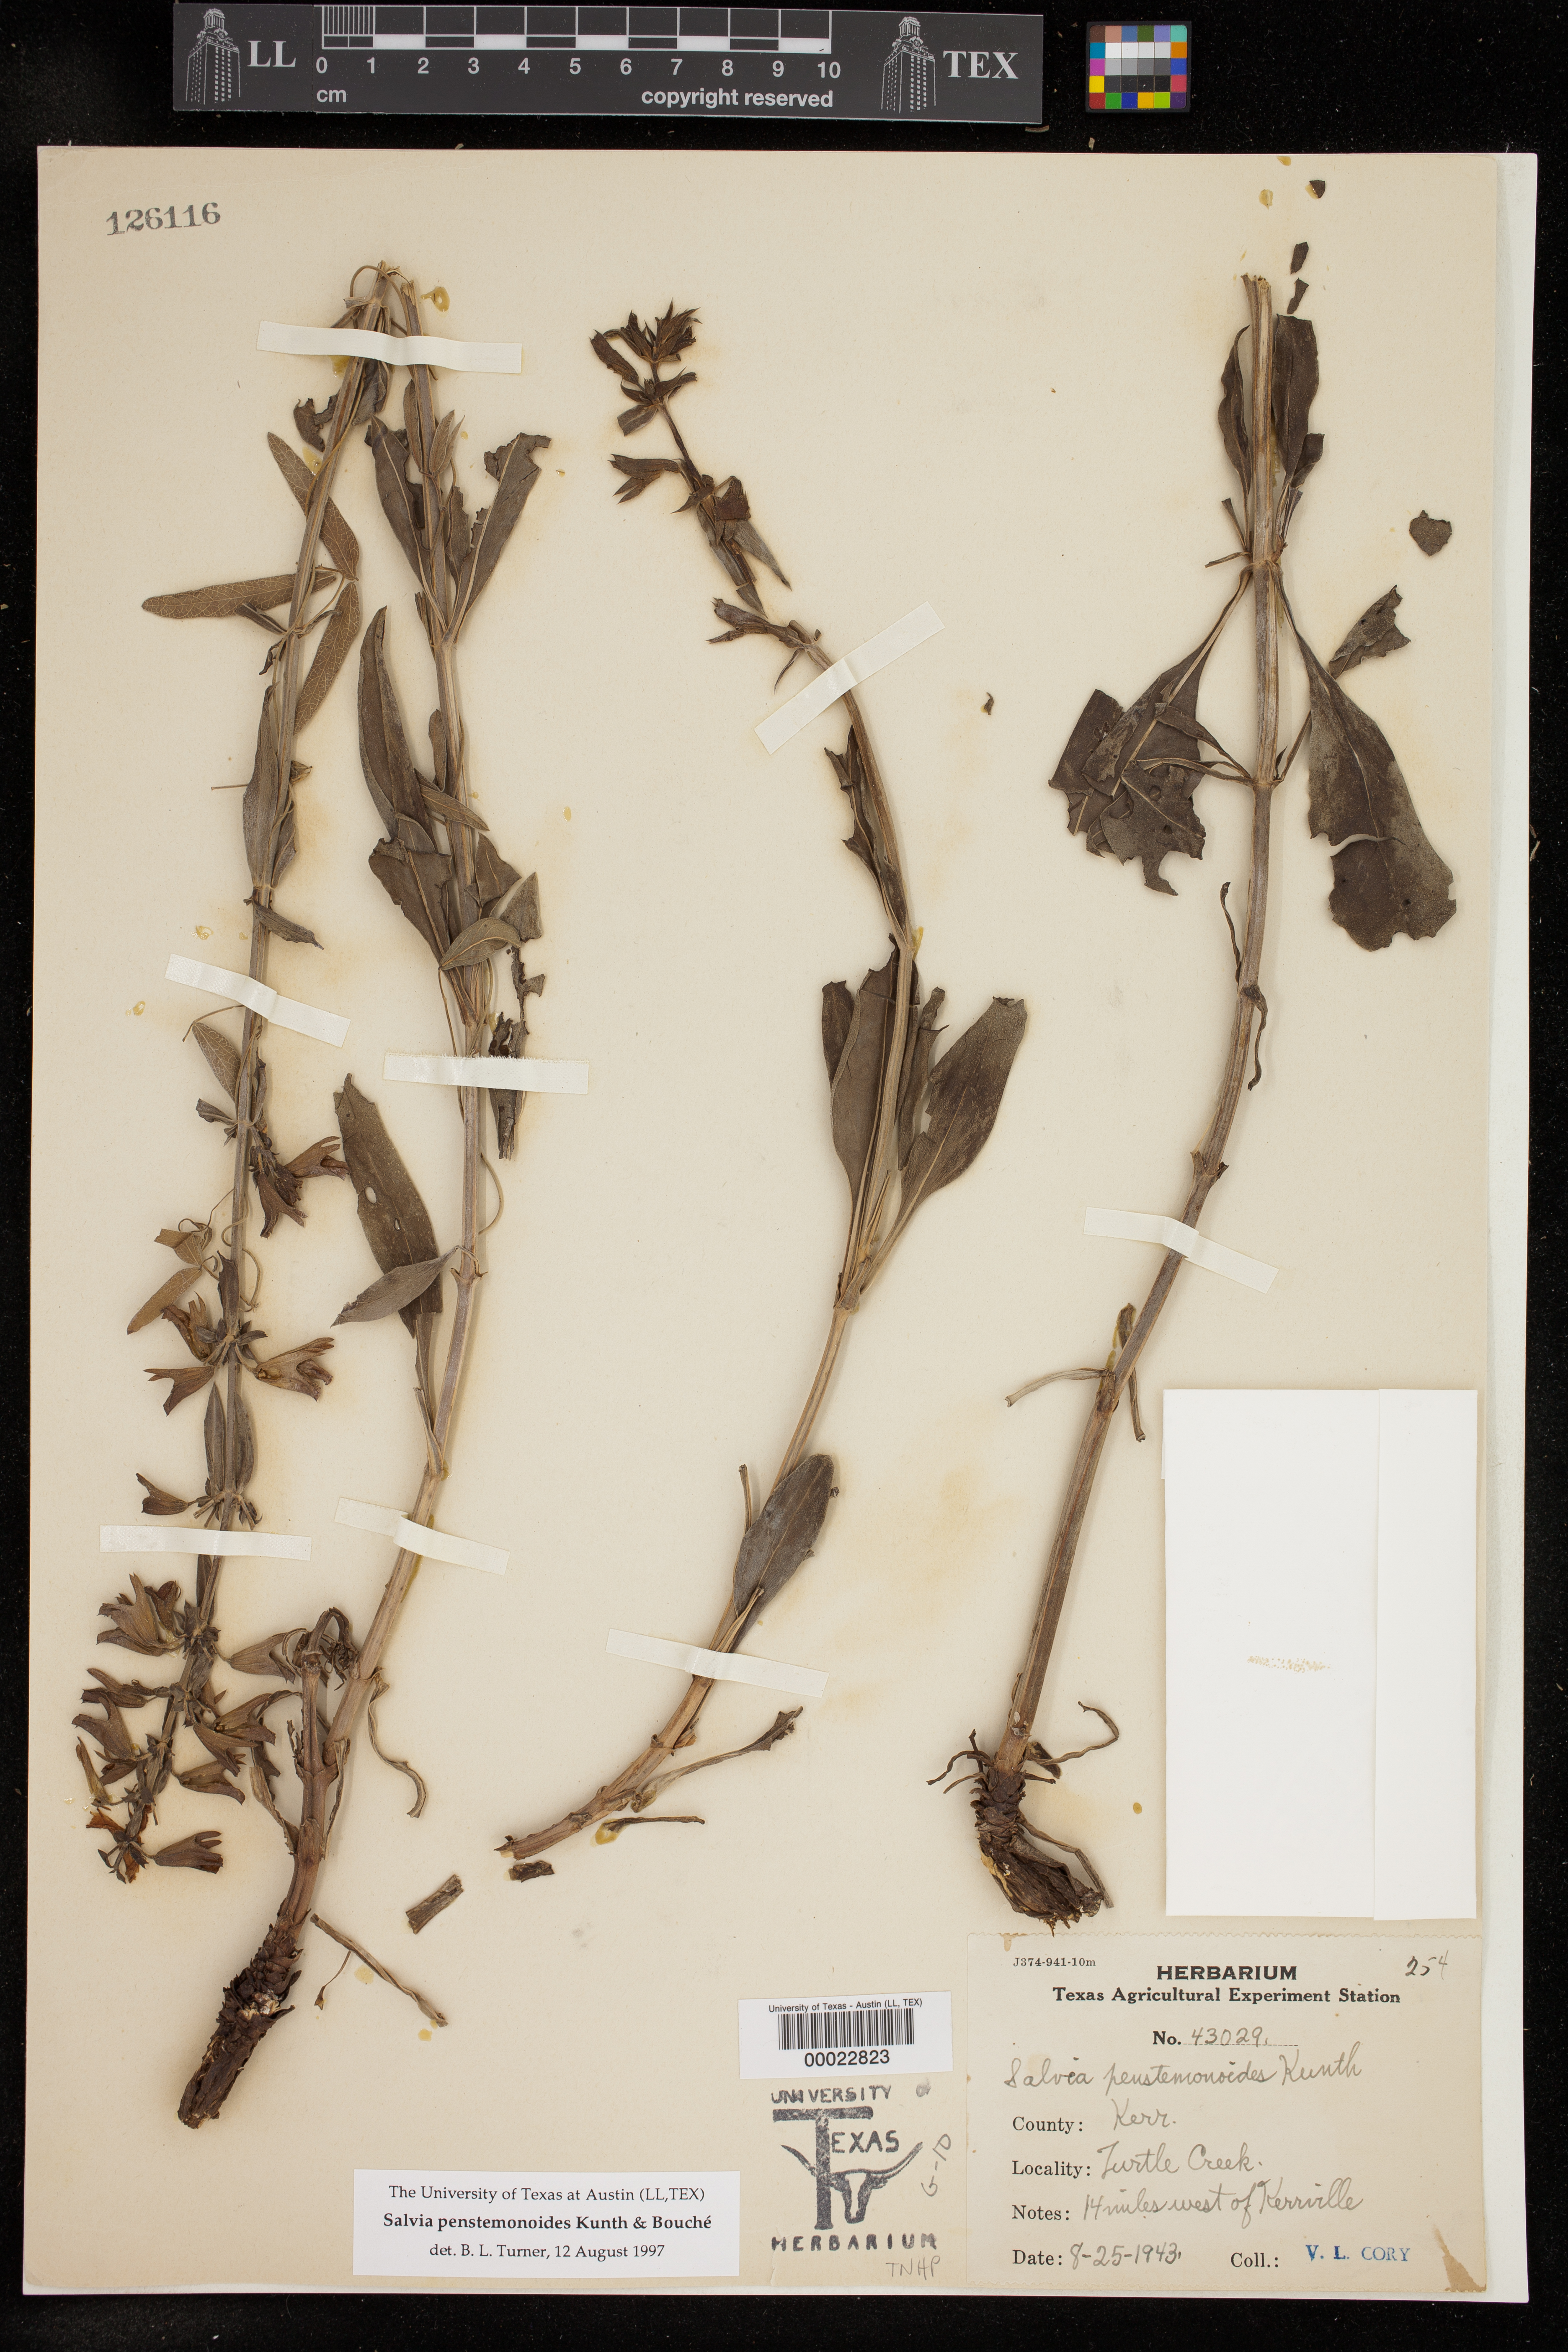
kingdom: Plantae
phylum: Tracheophyta
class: Magnoliopsida
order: Lamiales
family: Lamiaceae
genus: Salvia
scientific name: Salvia pentstemonoides
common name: Big red sage
